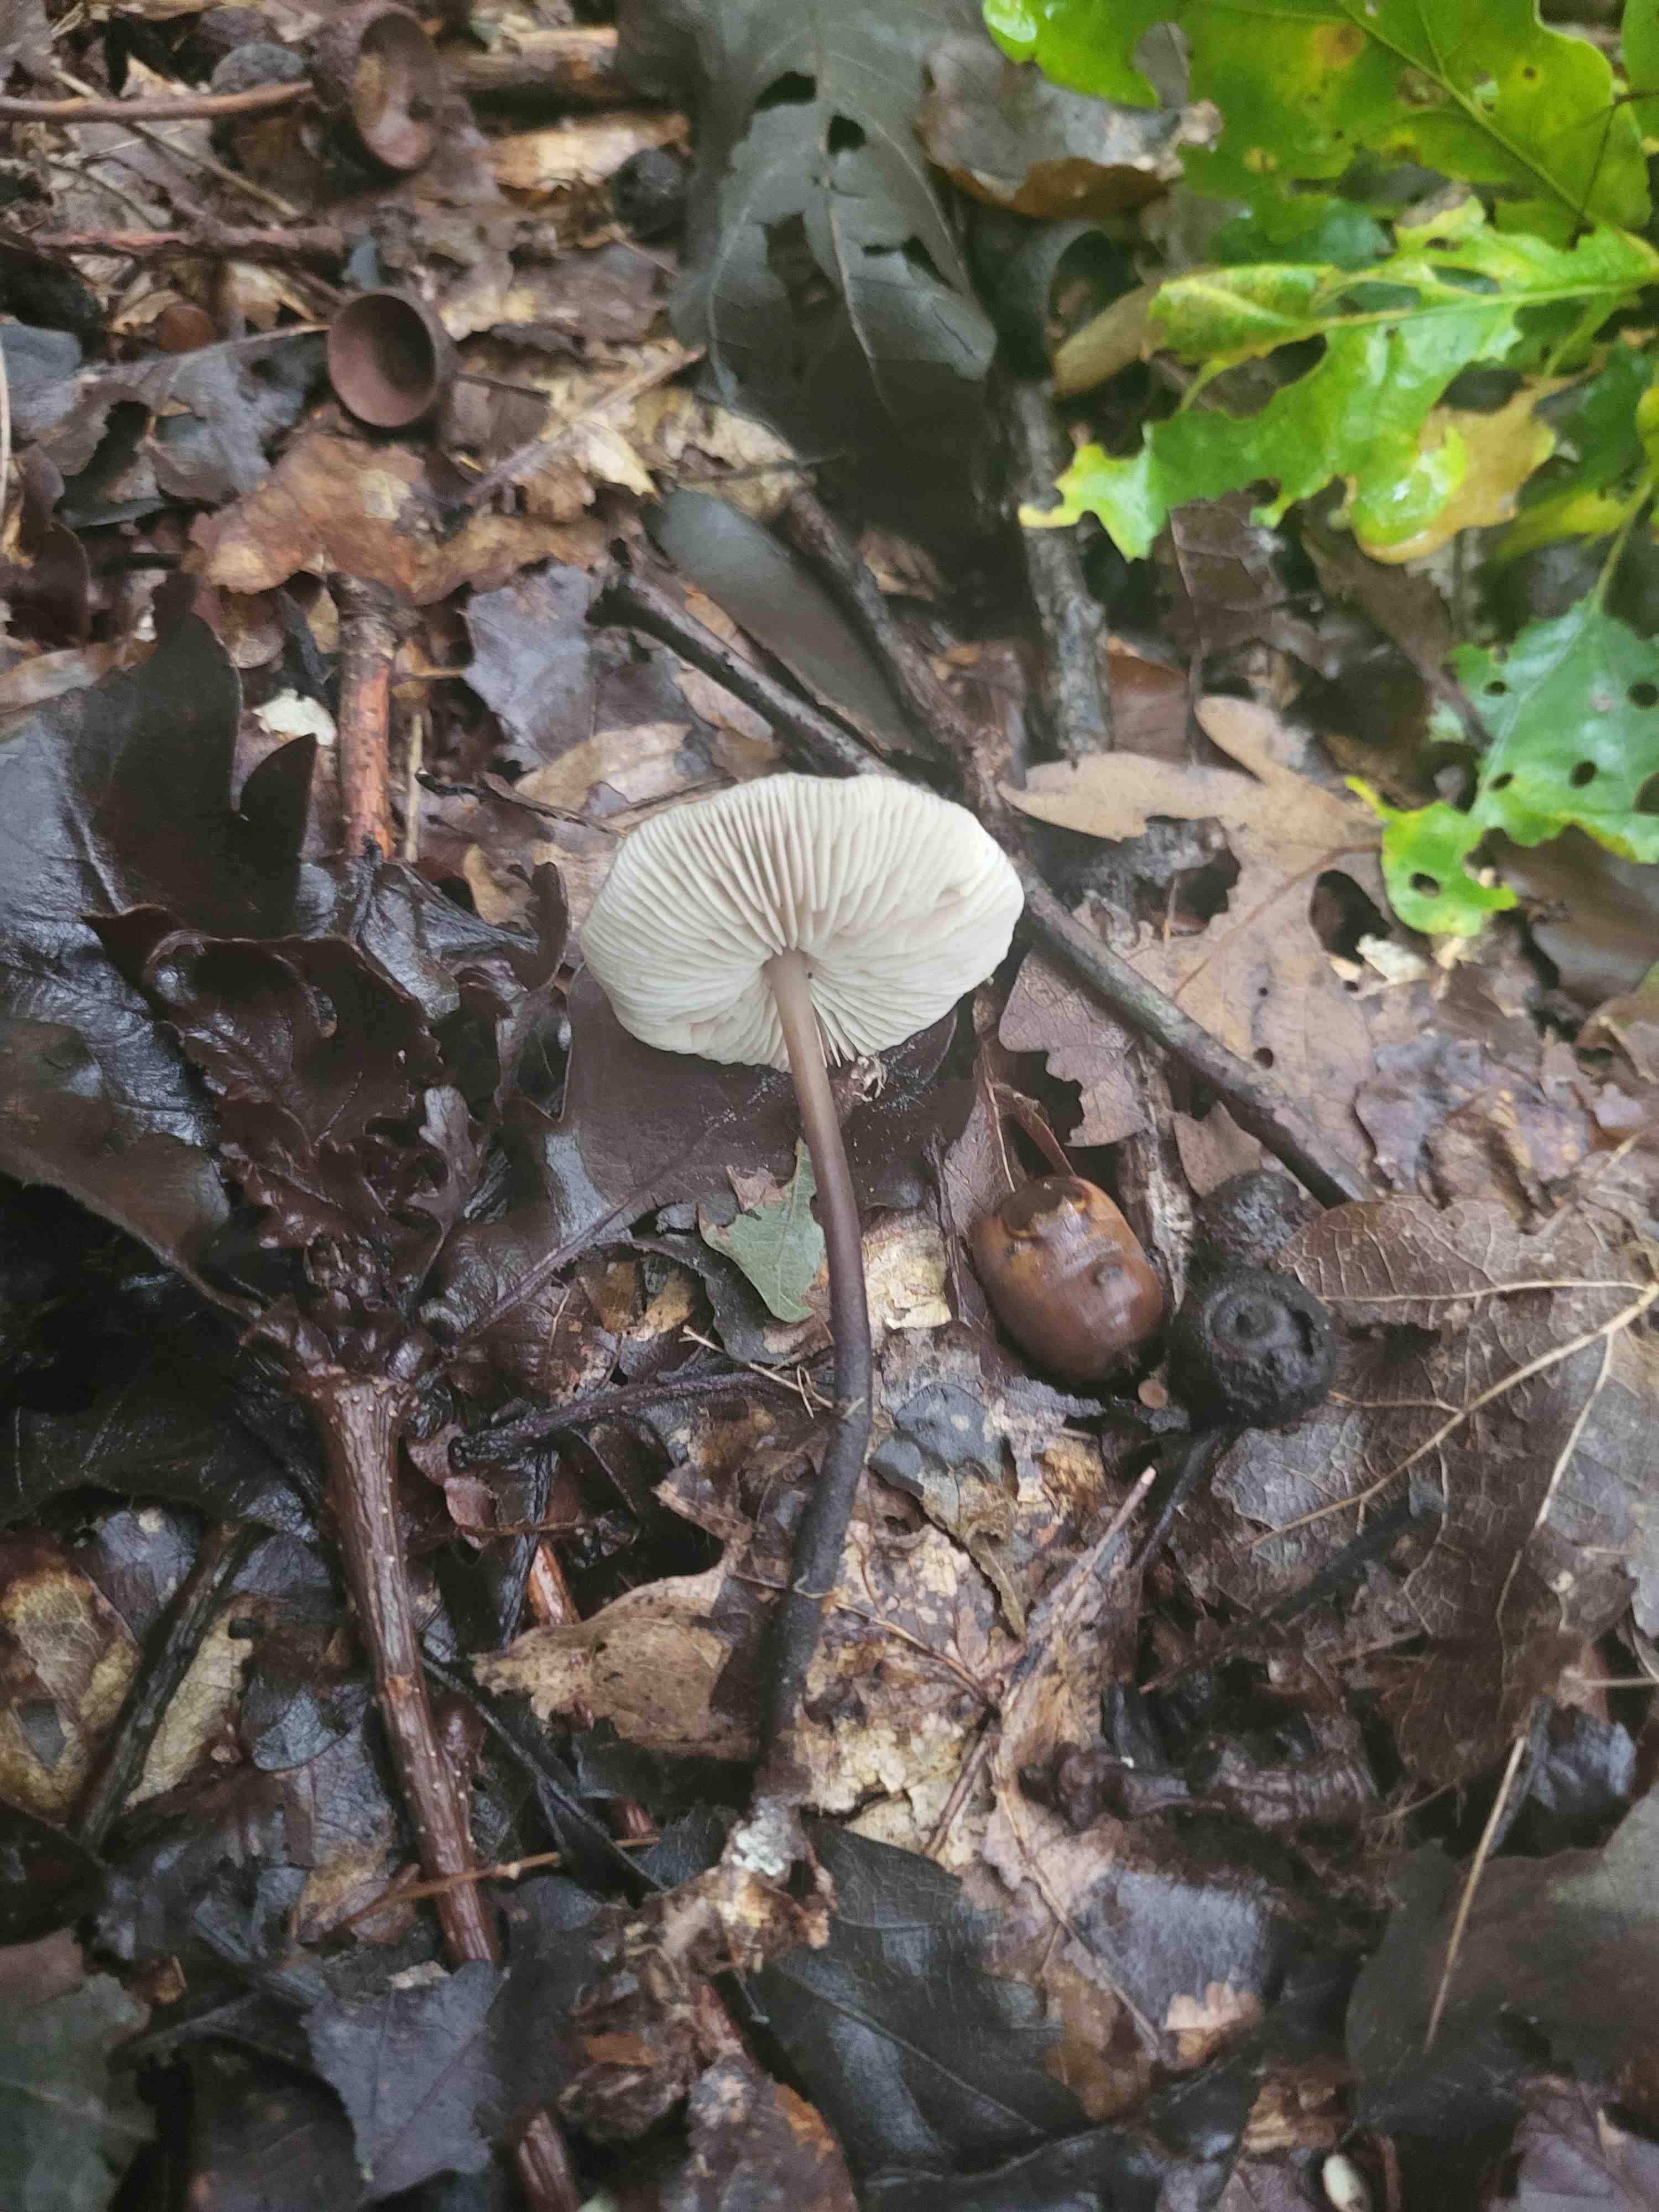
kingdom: Fungi
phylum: Basidiomycota
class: Agaricomycetes
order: Agaricales
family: Omphalotaceae
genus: Mycetinis
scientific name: Mycetinis alliaceus
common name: stor løghat
